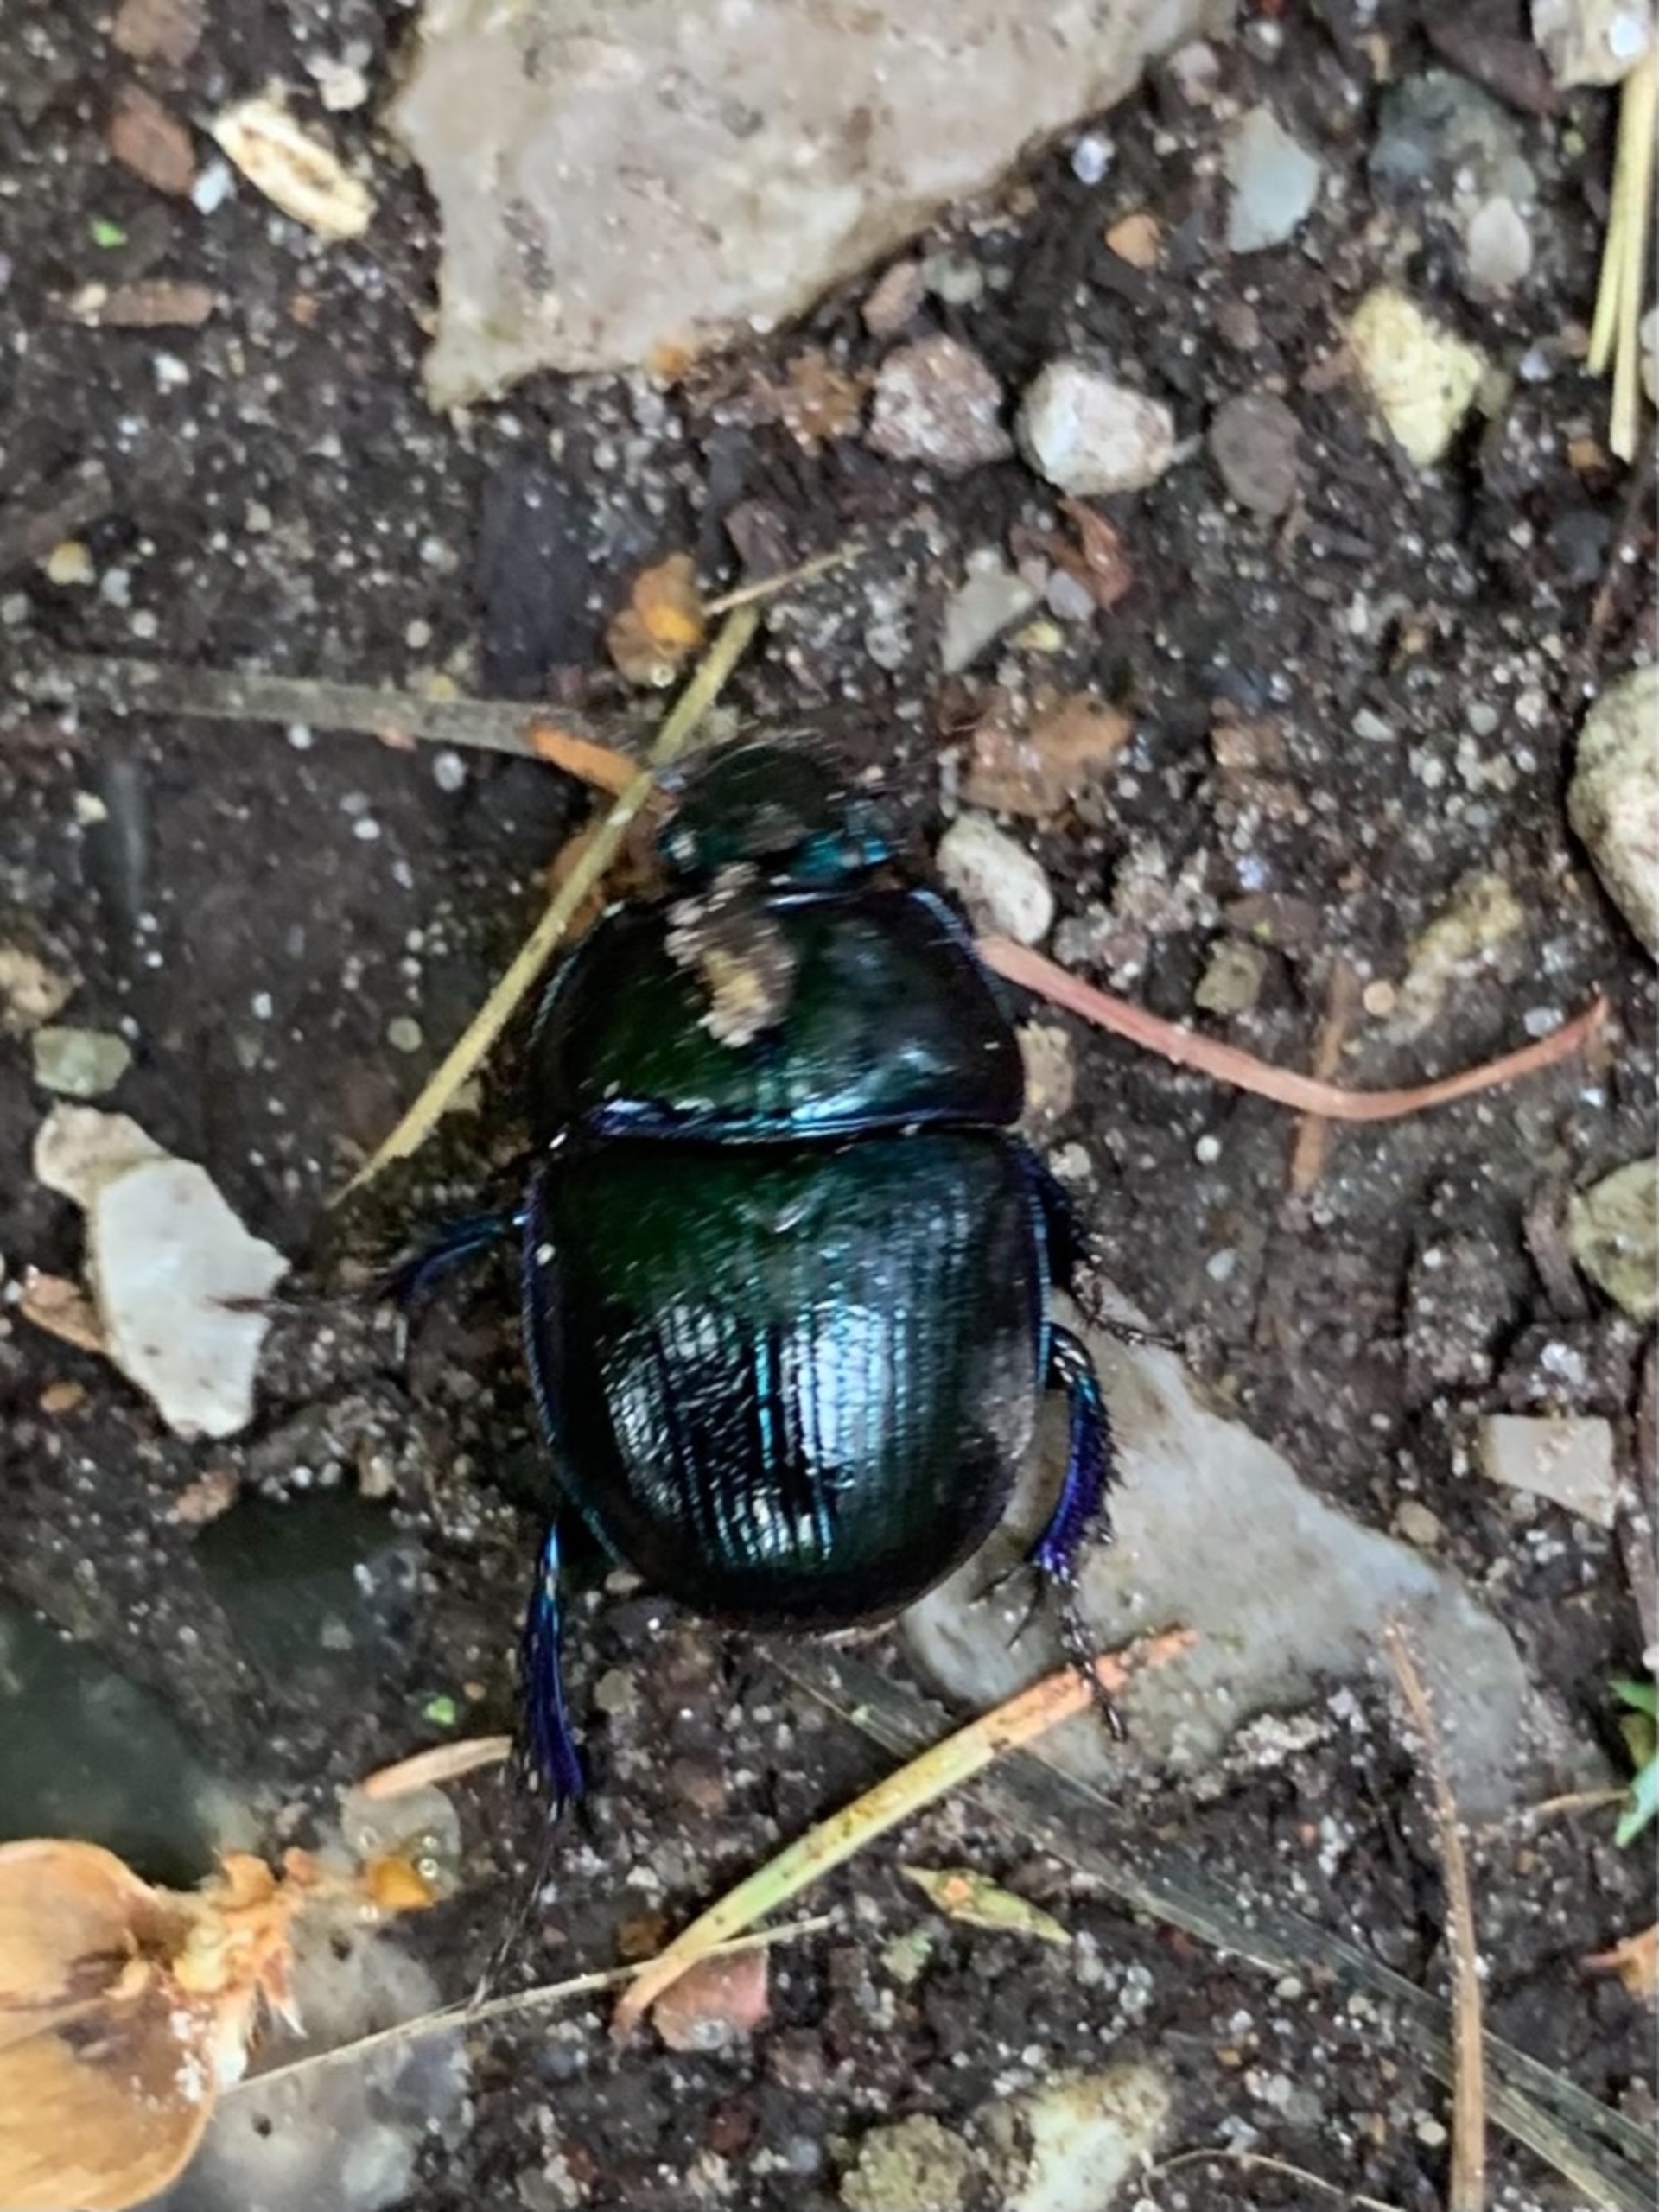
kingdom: Animalia
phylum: Arthropoda
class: Insecta
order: Coleoptera
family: Geotrupidae
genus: Anoplotrupes
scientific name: Anoplotrupes stercorosus
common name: Skovskarnbasse
